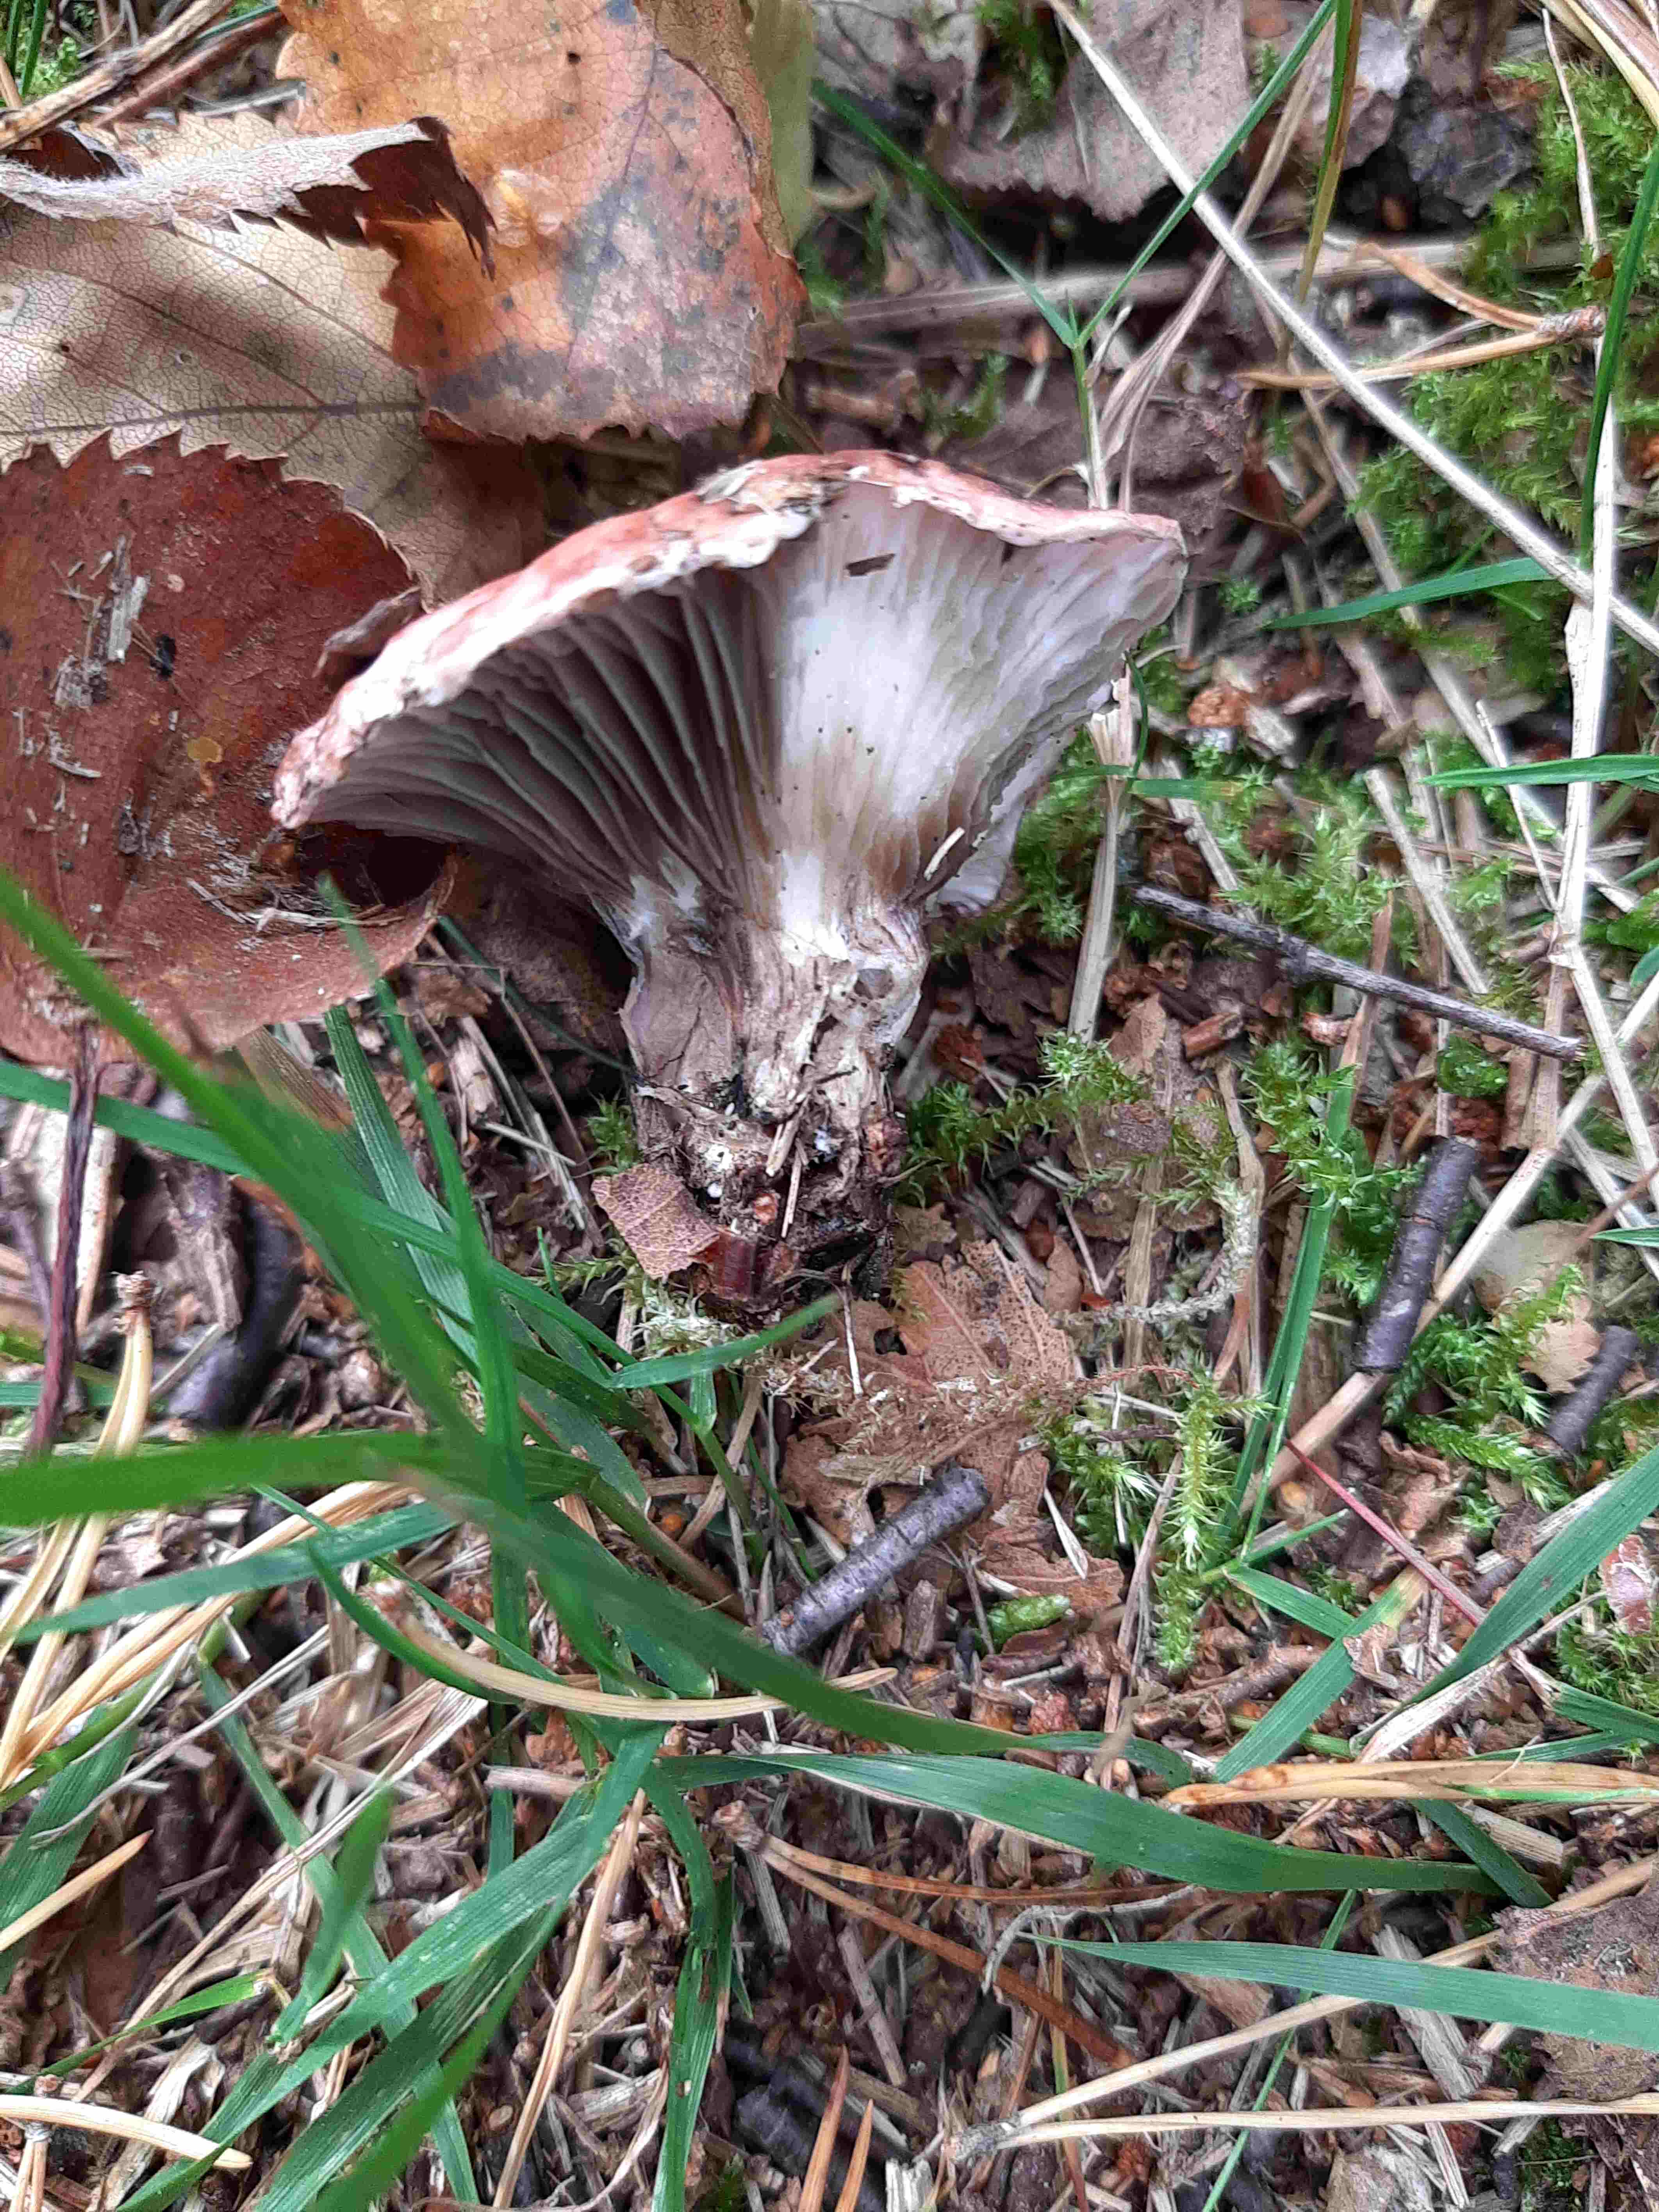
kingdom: Fungi
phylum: Basidiomycota
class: Agaricomycetes
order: Boletales
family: Gomphidiaceae
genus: Gomphidius
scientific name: Gomphidius roseus
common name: rosenrød slimslør
